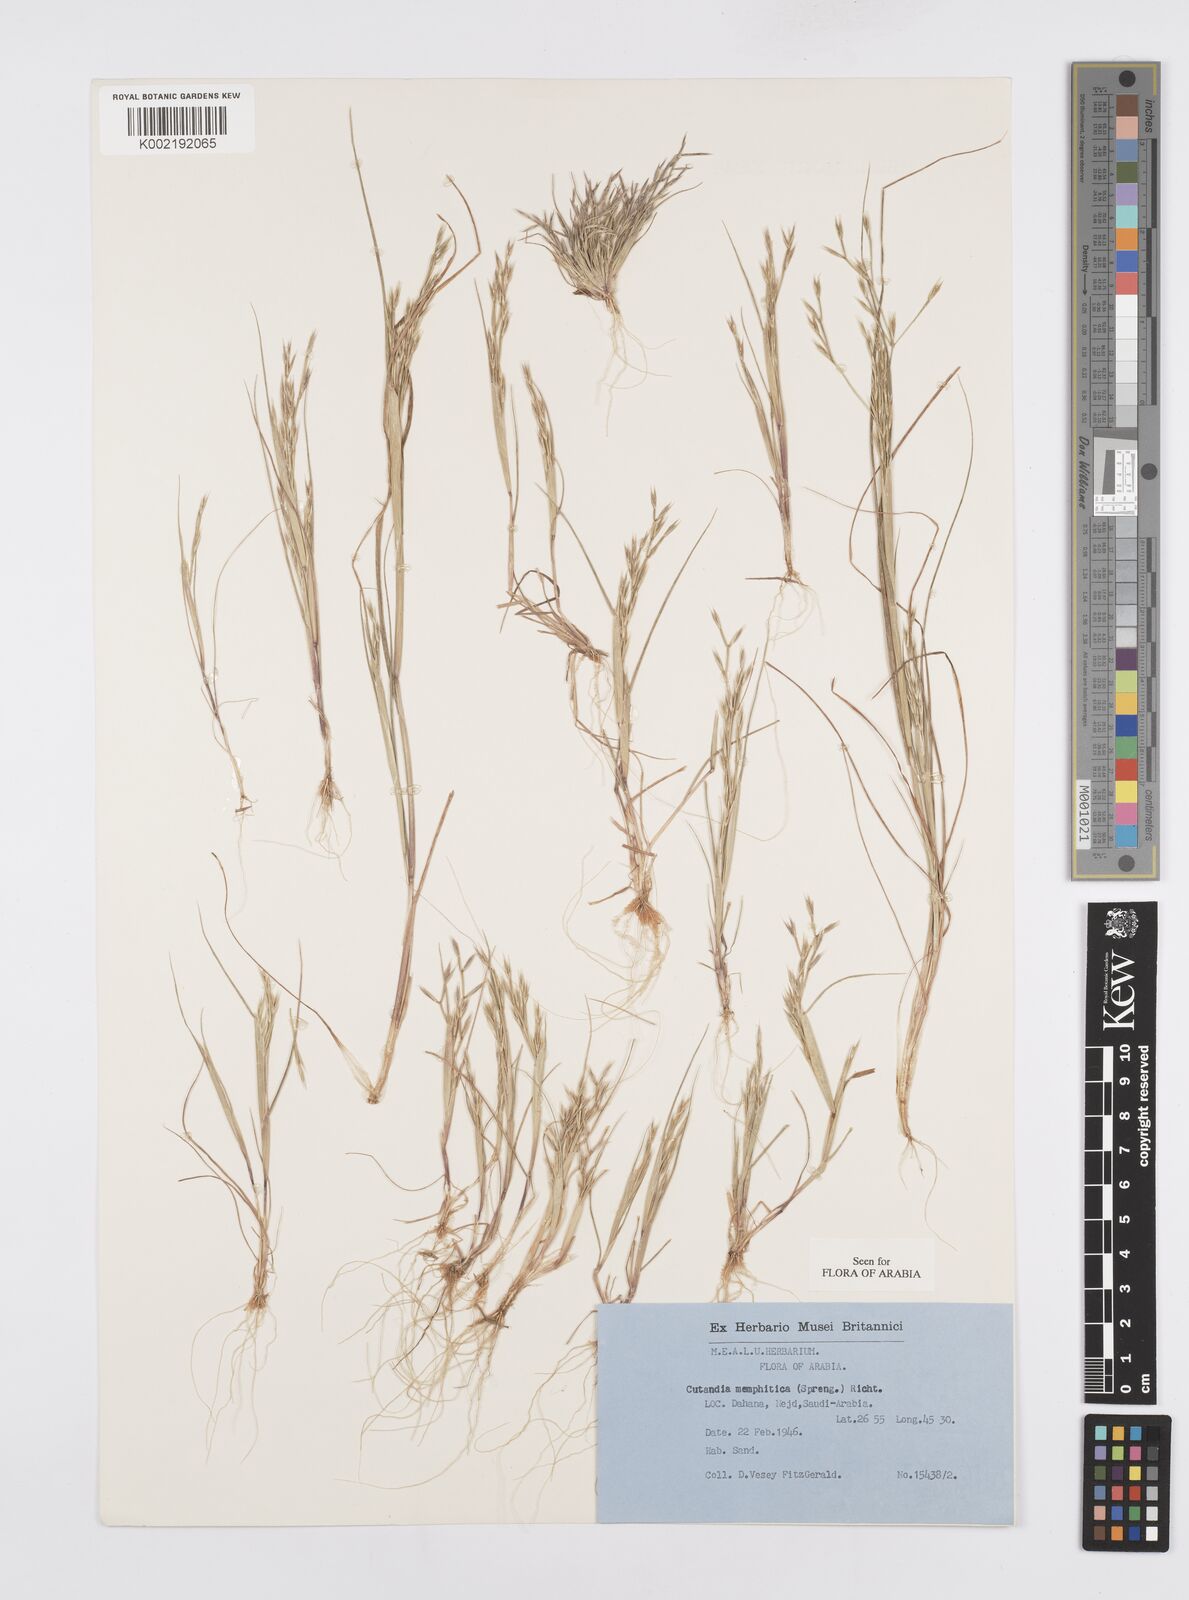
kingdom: Plantae
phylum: Tracheophyta
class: Liliopsida
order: Poales
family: Poaceae
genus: Cutandia
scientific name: Cutandia memphitica
